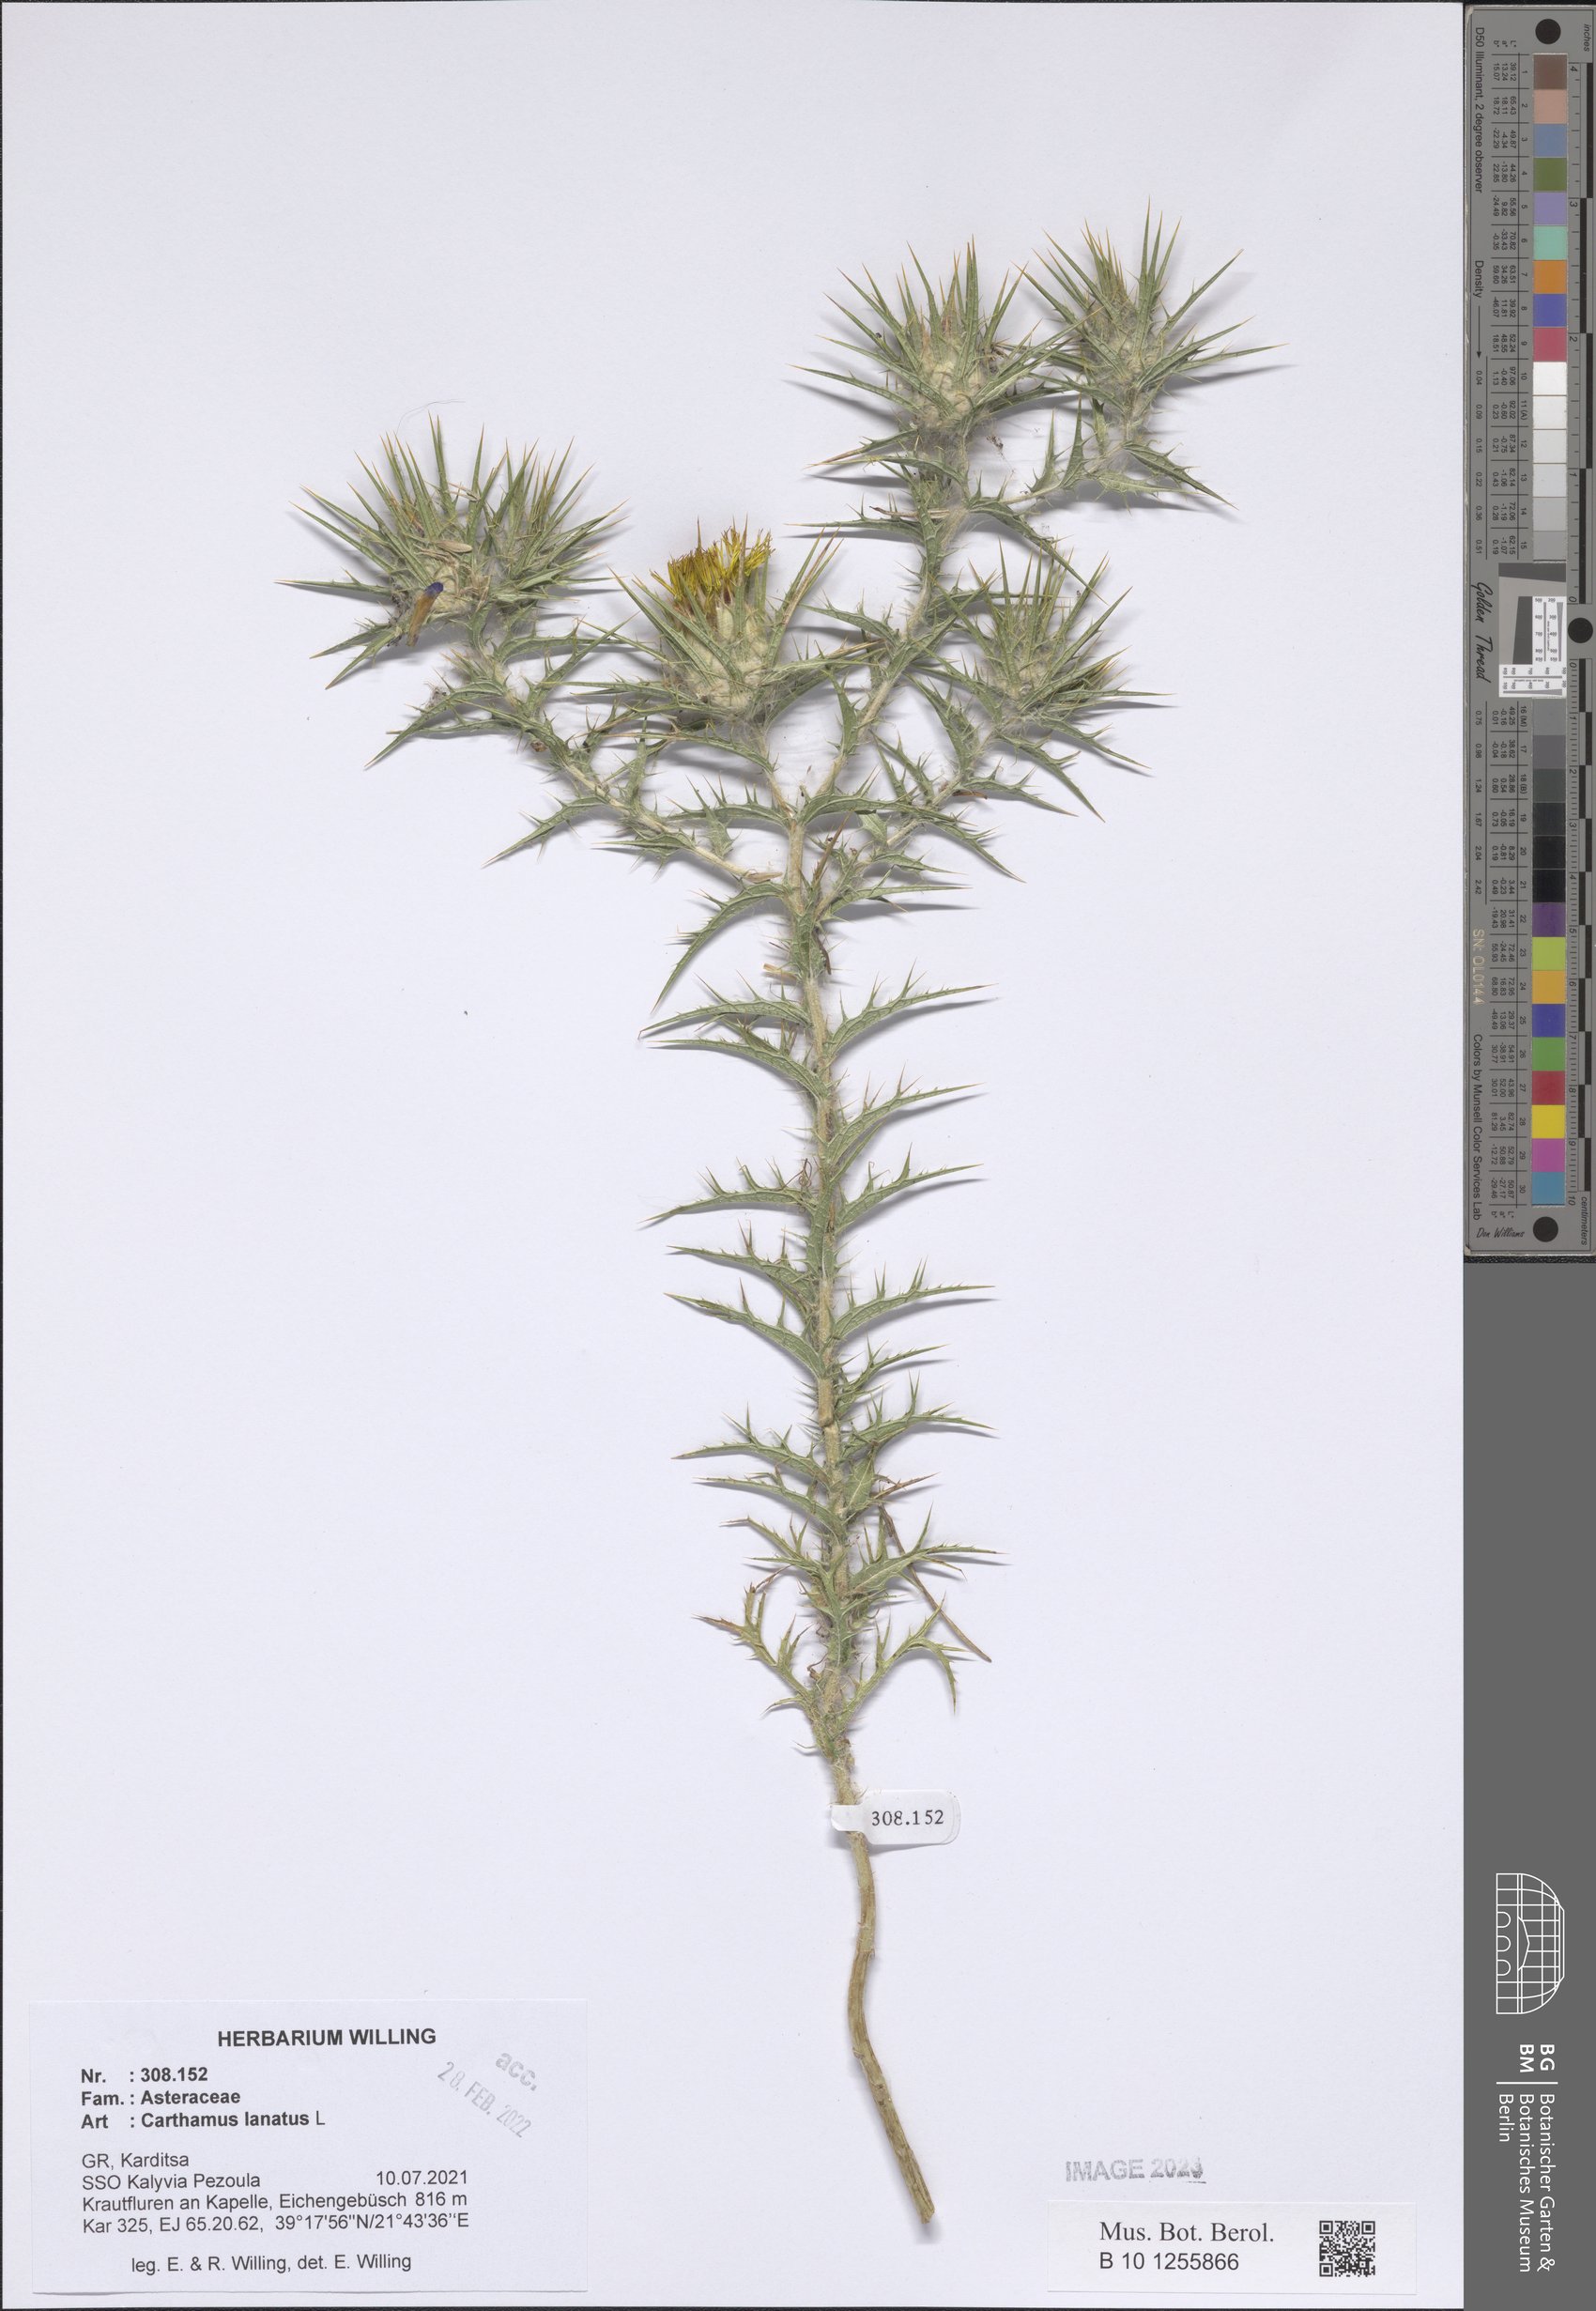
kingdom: Plantae
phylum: Tracheophyta
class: Magnoliopsida
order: Asterales
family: Asteraceae
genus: Carthamus
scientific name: Carthamus lanatus
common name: Downy safflower
